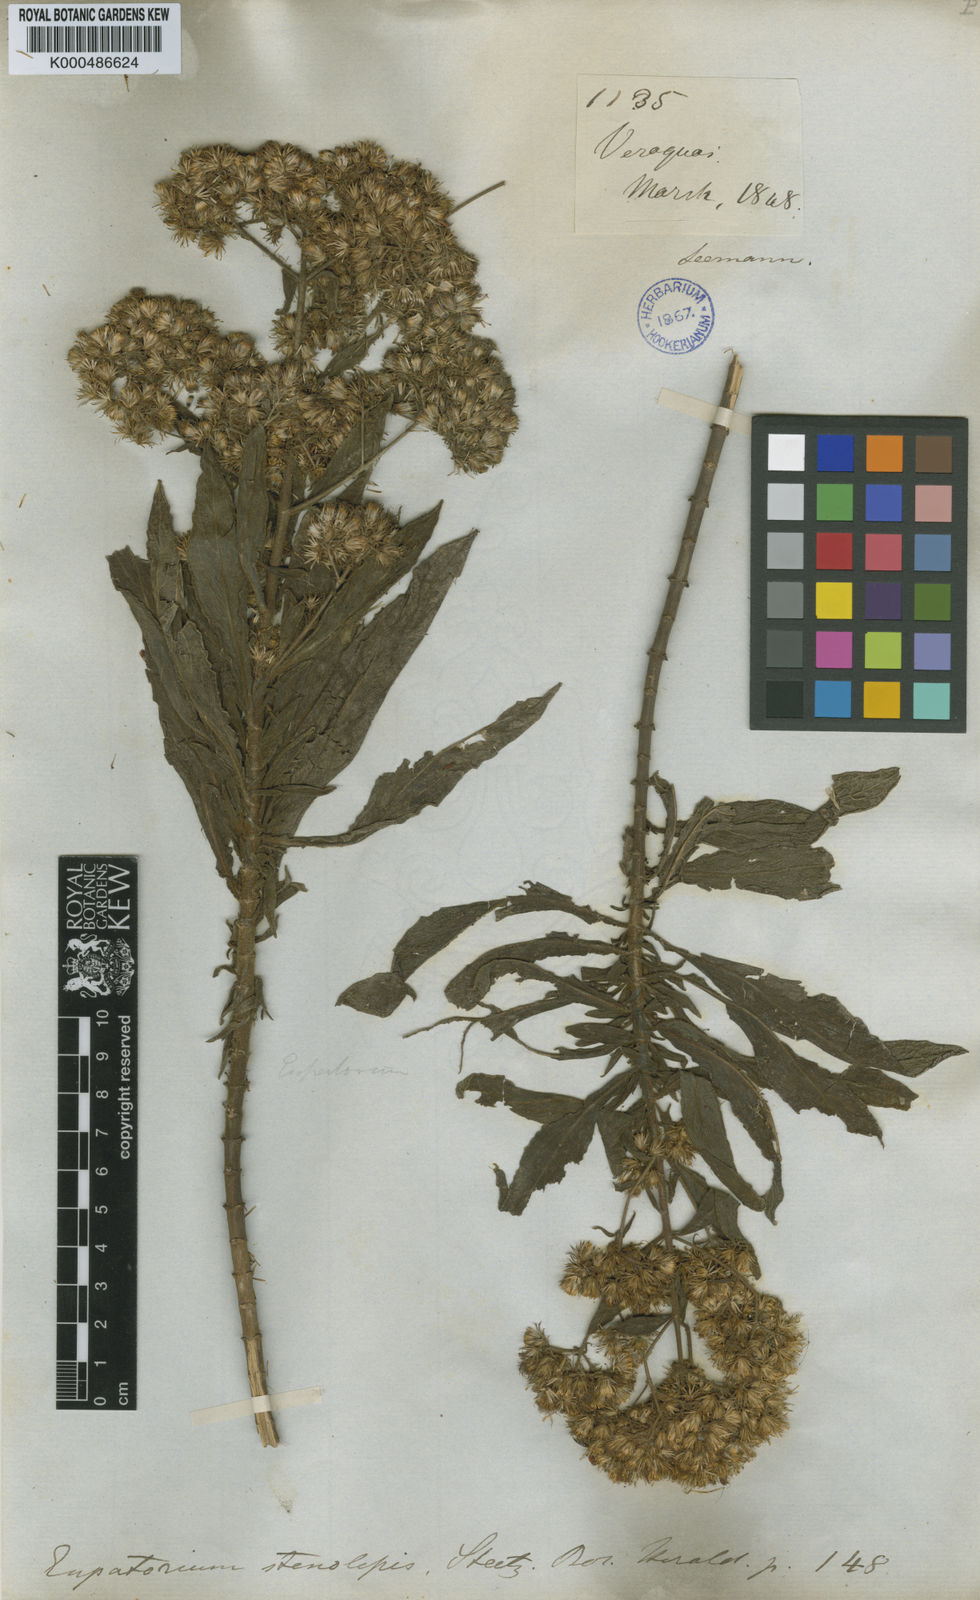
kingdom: Plantae
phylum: Tracheophyta
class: Magnoliopsida
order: Asterales
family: Asteraceae
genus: Ayapana
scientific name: Ayapana stenolepis
